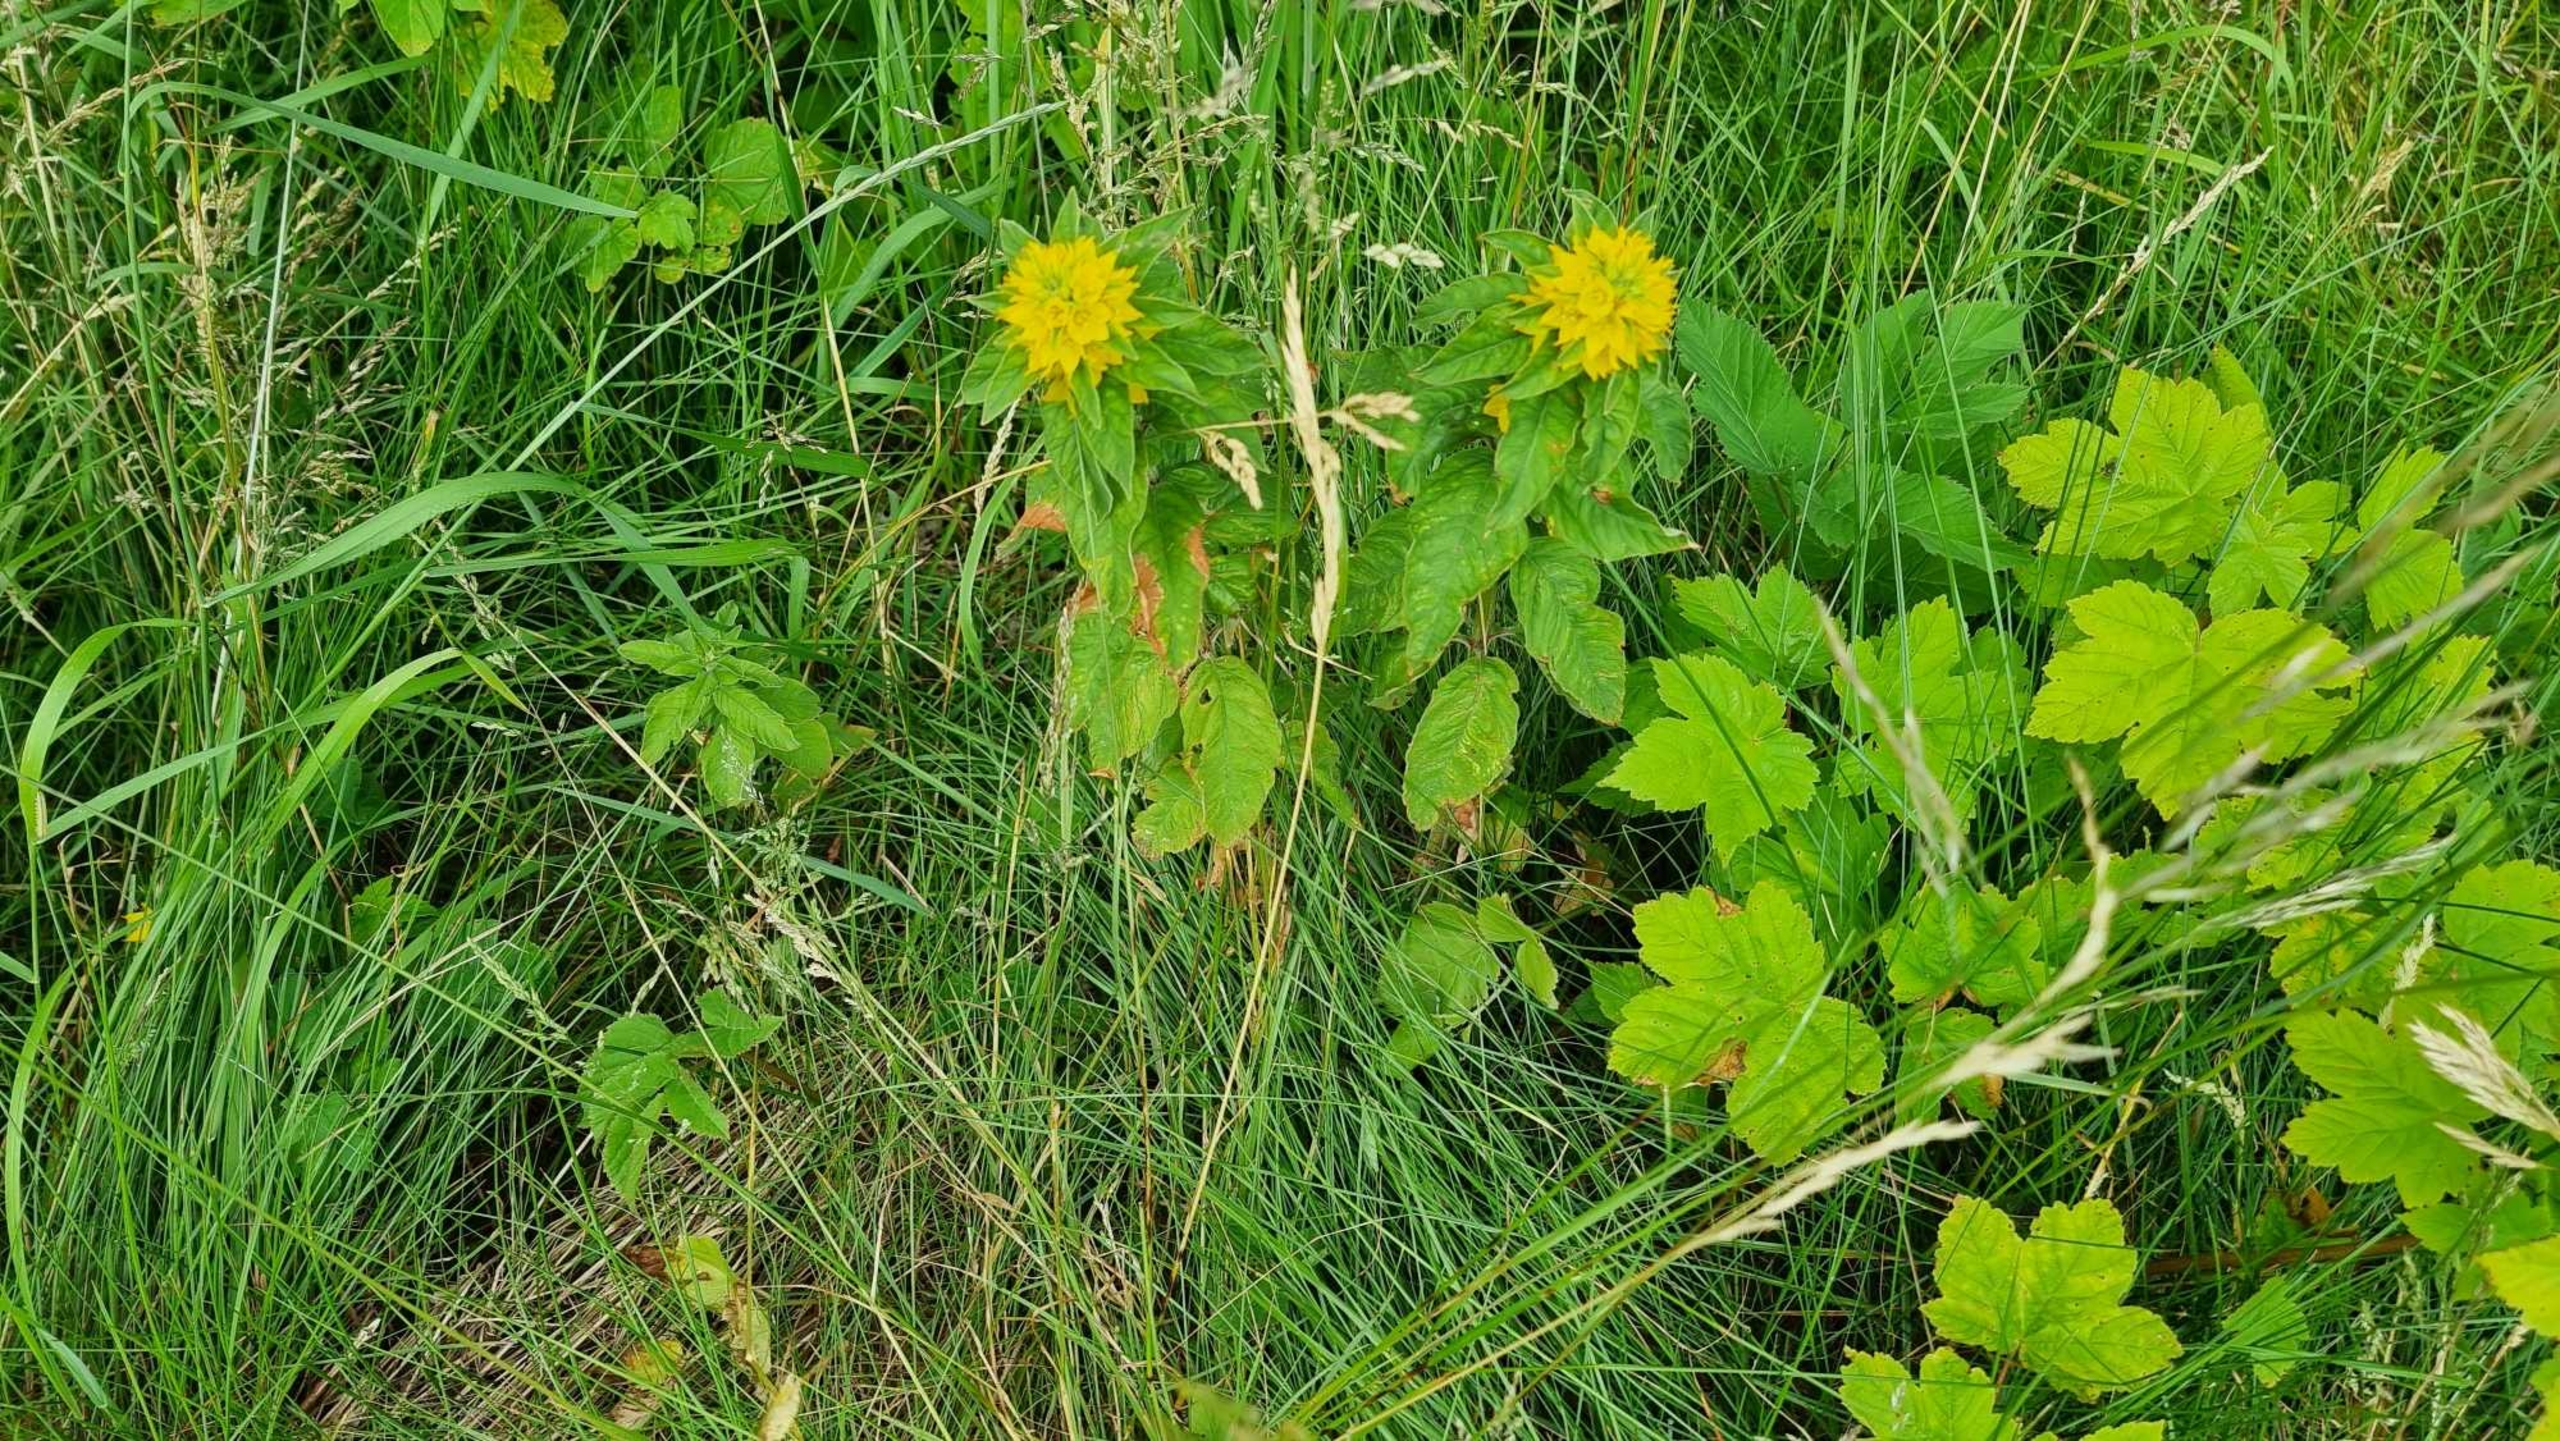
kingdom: Plantae
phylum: Tracheophyta
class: Magnoliopsida
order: Ericales
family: Primulaceae
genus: Lysimachia
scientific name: Lysimachia punctata
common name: Prikbladet fredløs
